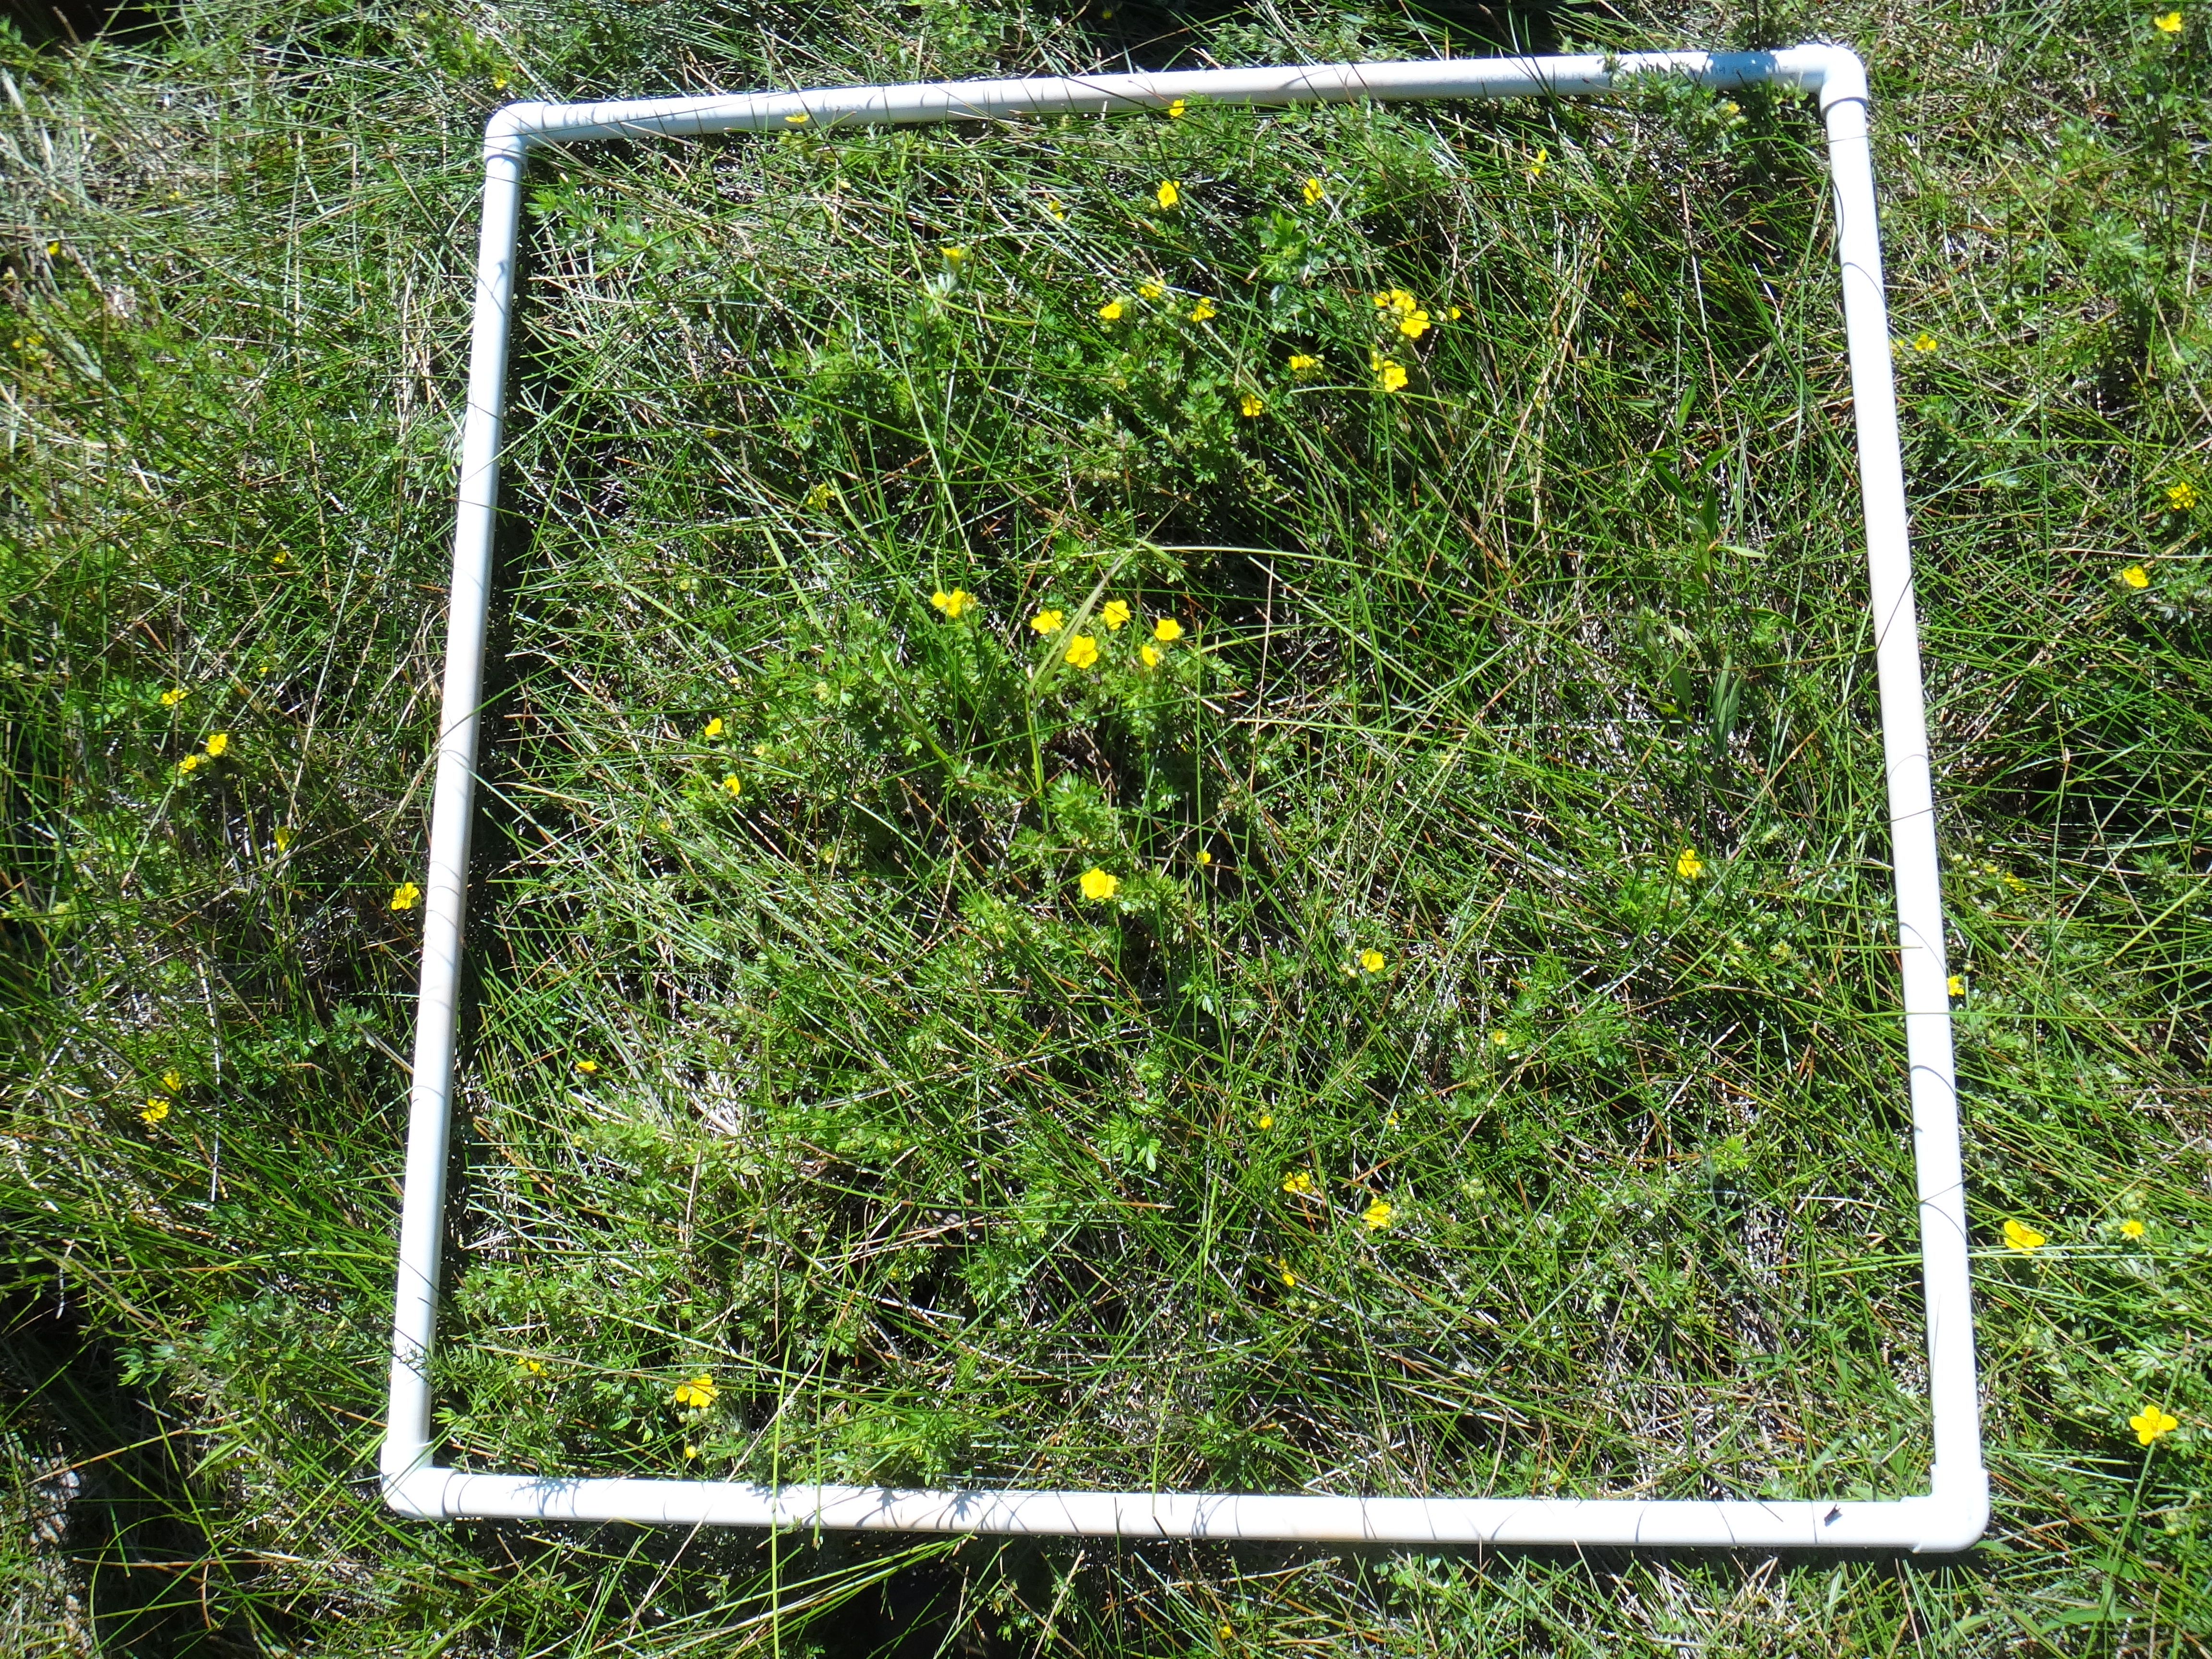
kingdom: Plantae
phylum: Tracheophyta
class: Magnoliopsida
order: Rosales
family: Rosaceae
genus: Dasiphora
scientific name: Dasiphora fruticosa
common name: Shrubby cinquefoil
